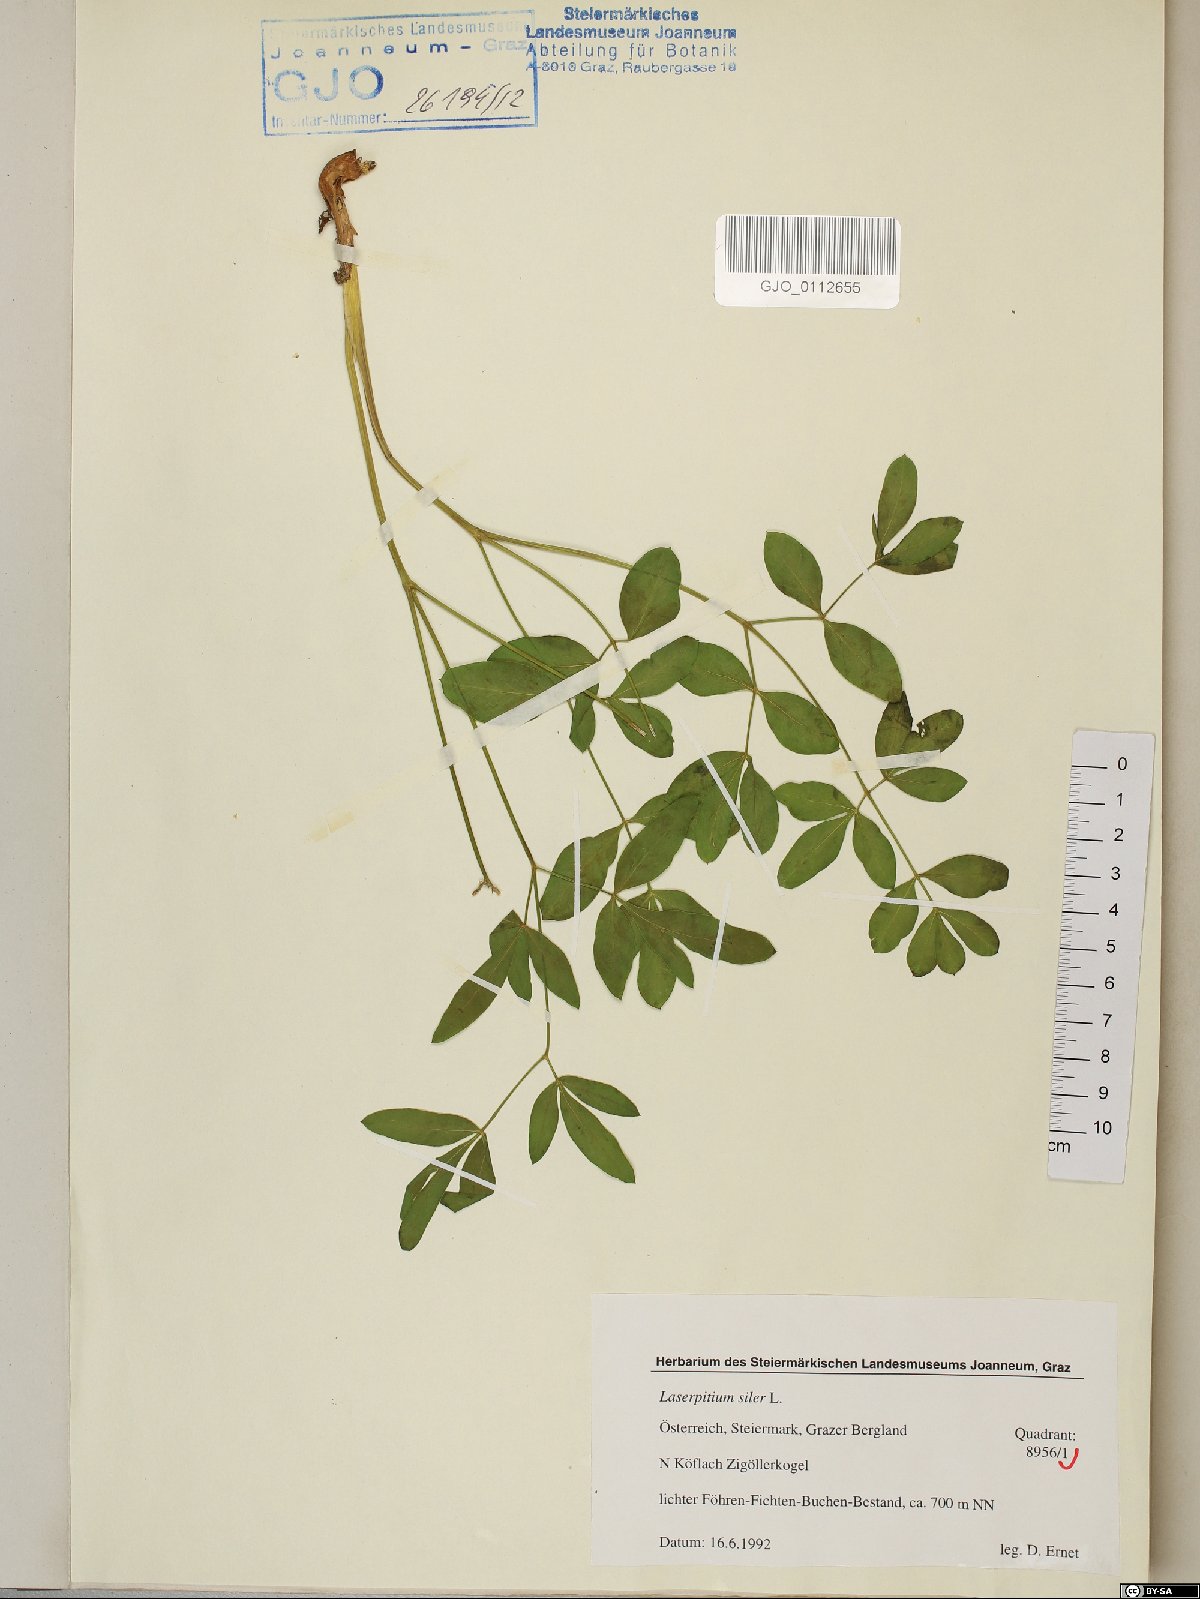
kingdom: Plantae
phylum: Tracheophyta
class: Magnoliopsida
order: Apiales
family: Apiaceae
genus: Siler
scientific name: Siler montanum
